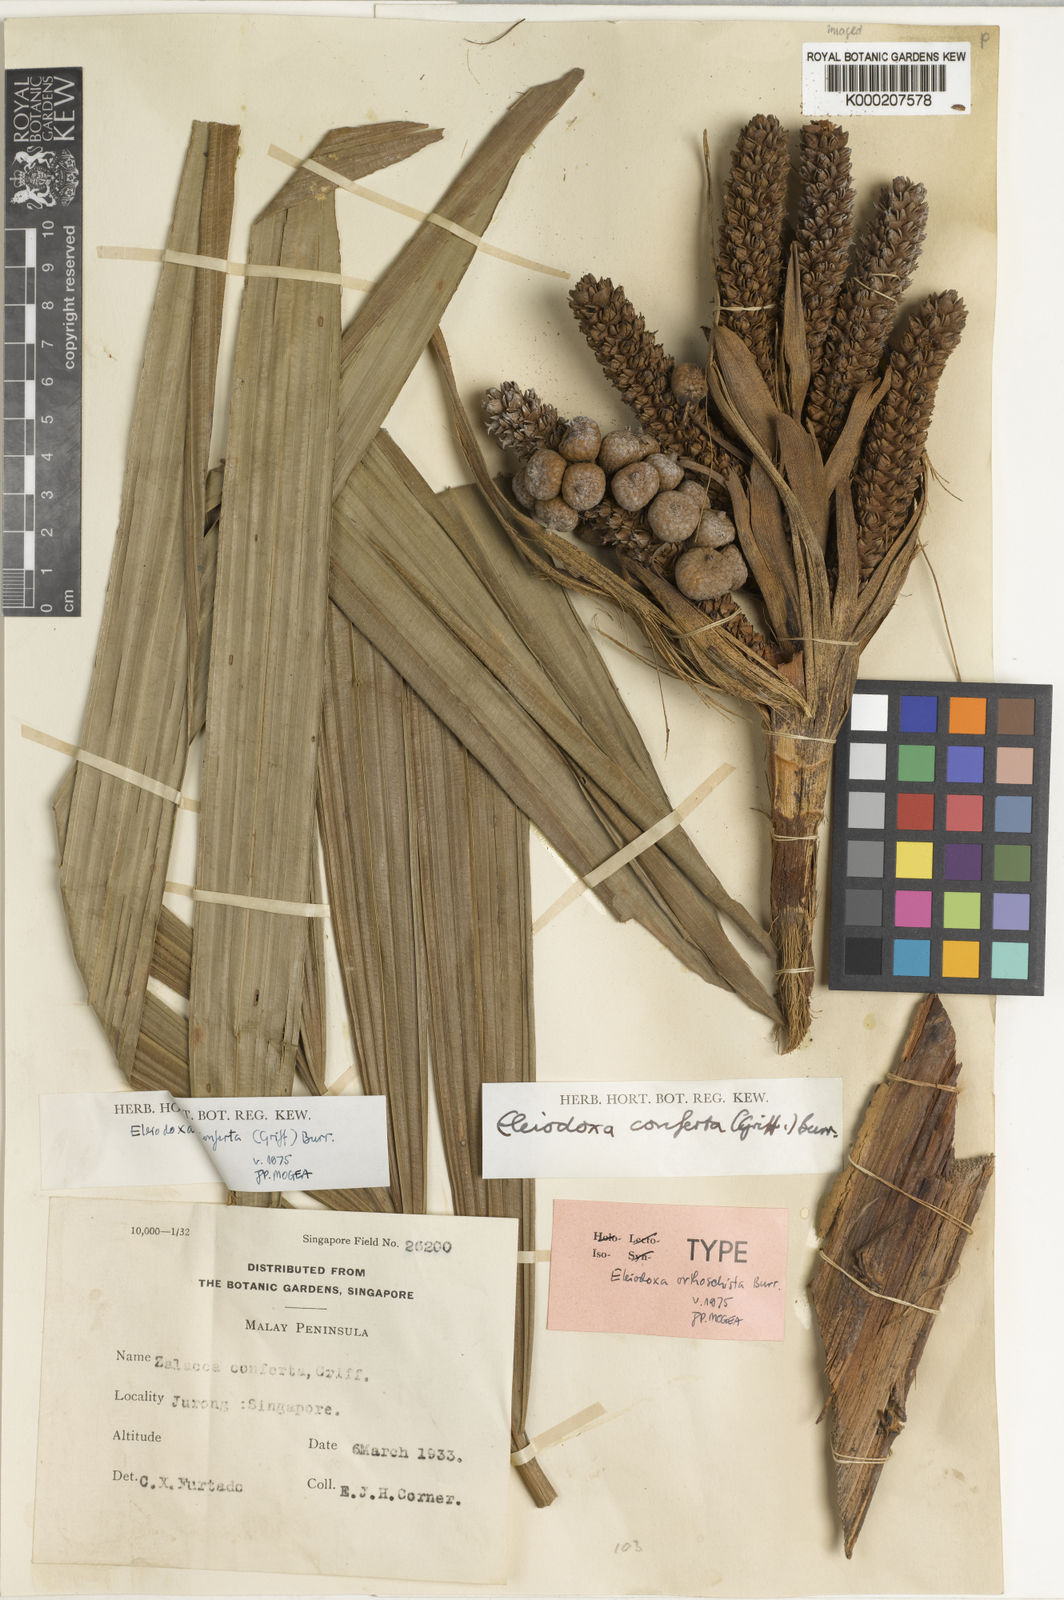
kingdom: Plantae
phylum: Tracheophyta
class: Liliopsida
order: Arecales
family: Arecaceae
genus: Eleiodoxa
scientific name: Eleiodoxa conferta
